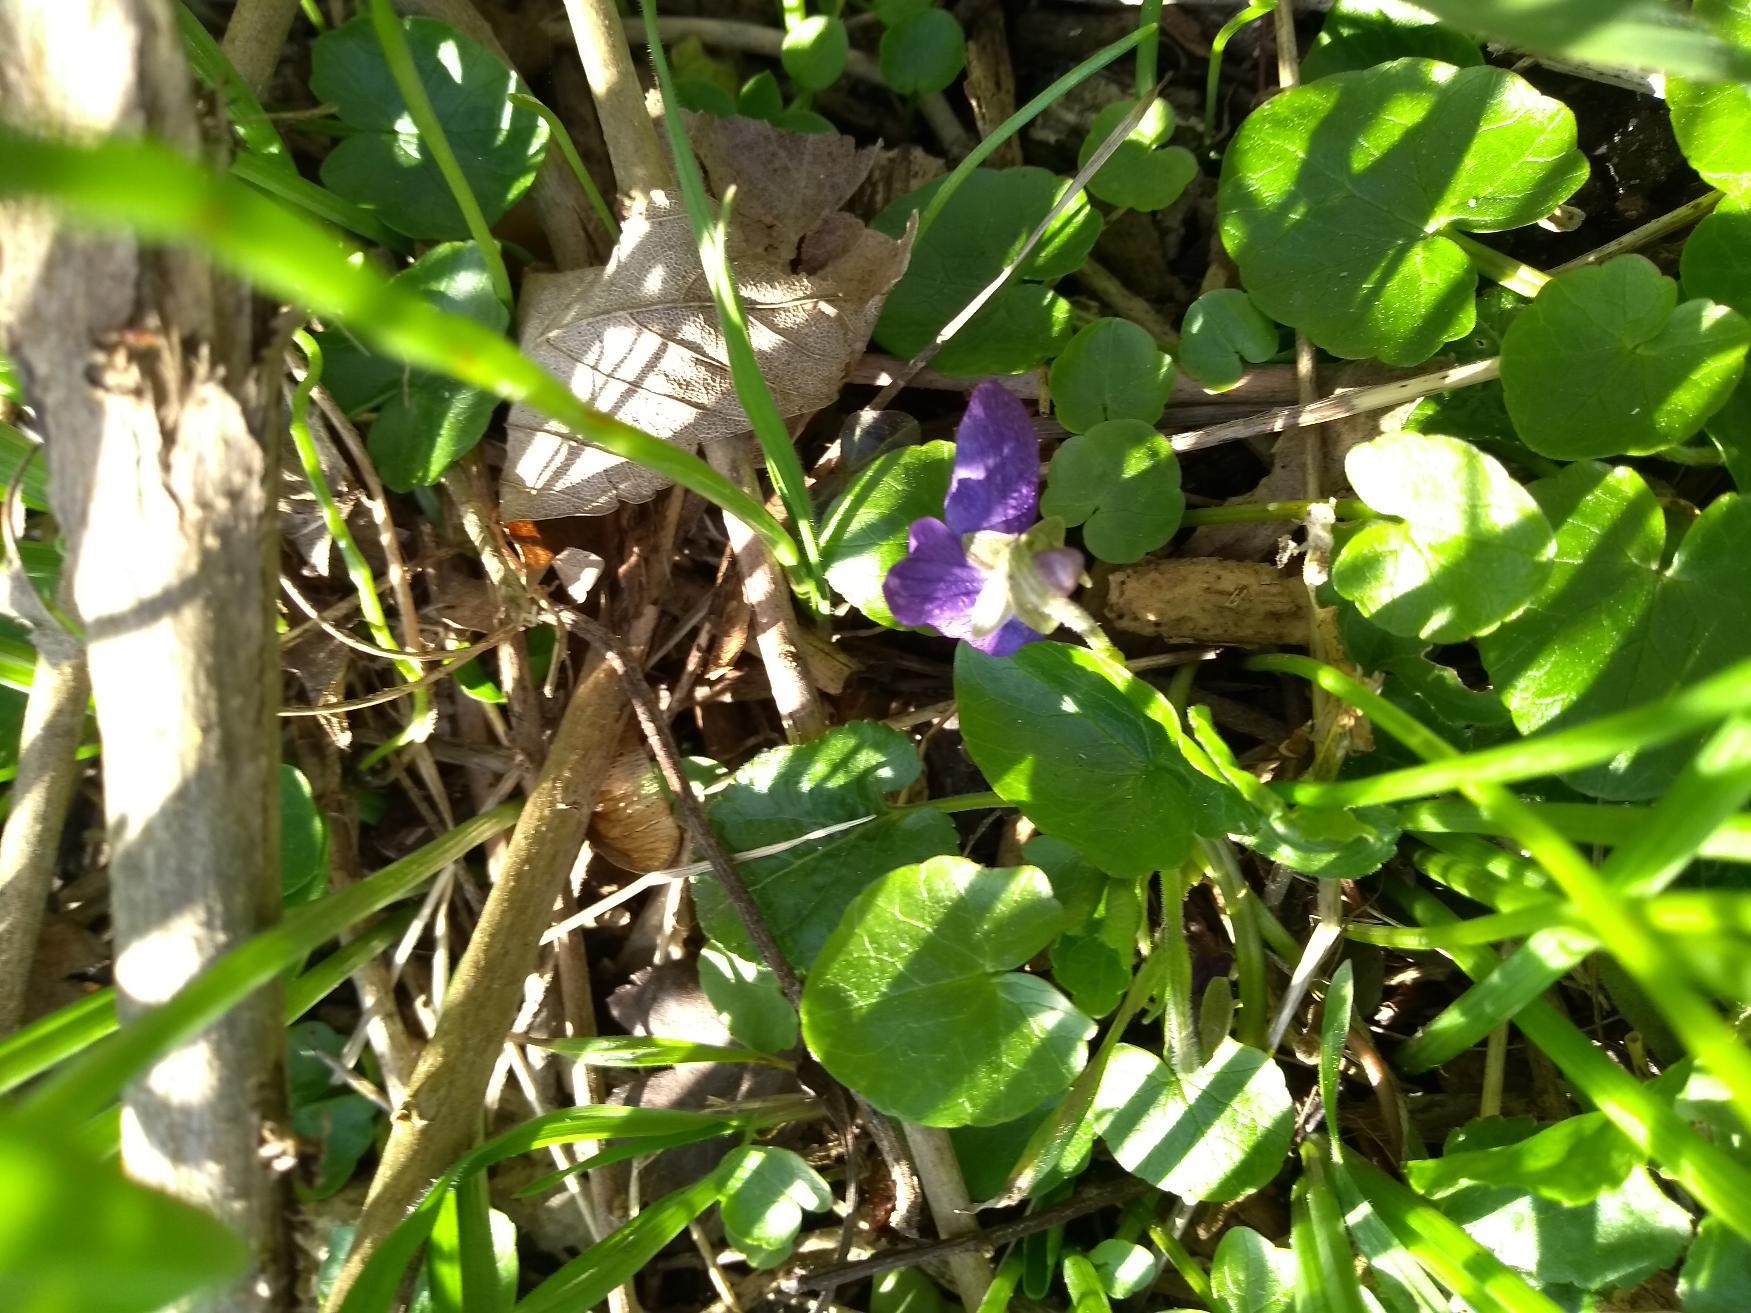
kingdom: Plantae
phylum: Tracheophyta
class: Magnoliopsida
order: Malpighiales
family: Violaceae
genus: Viola
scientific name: Viola odorata
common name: Marts-viol
